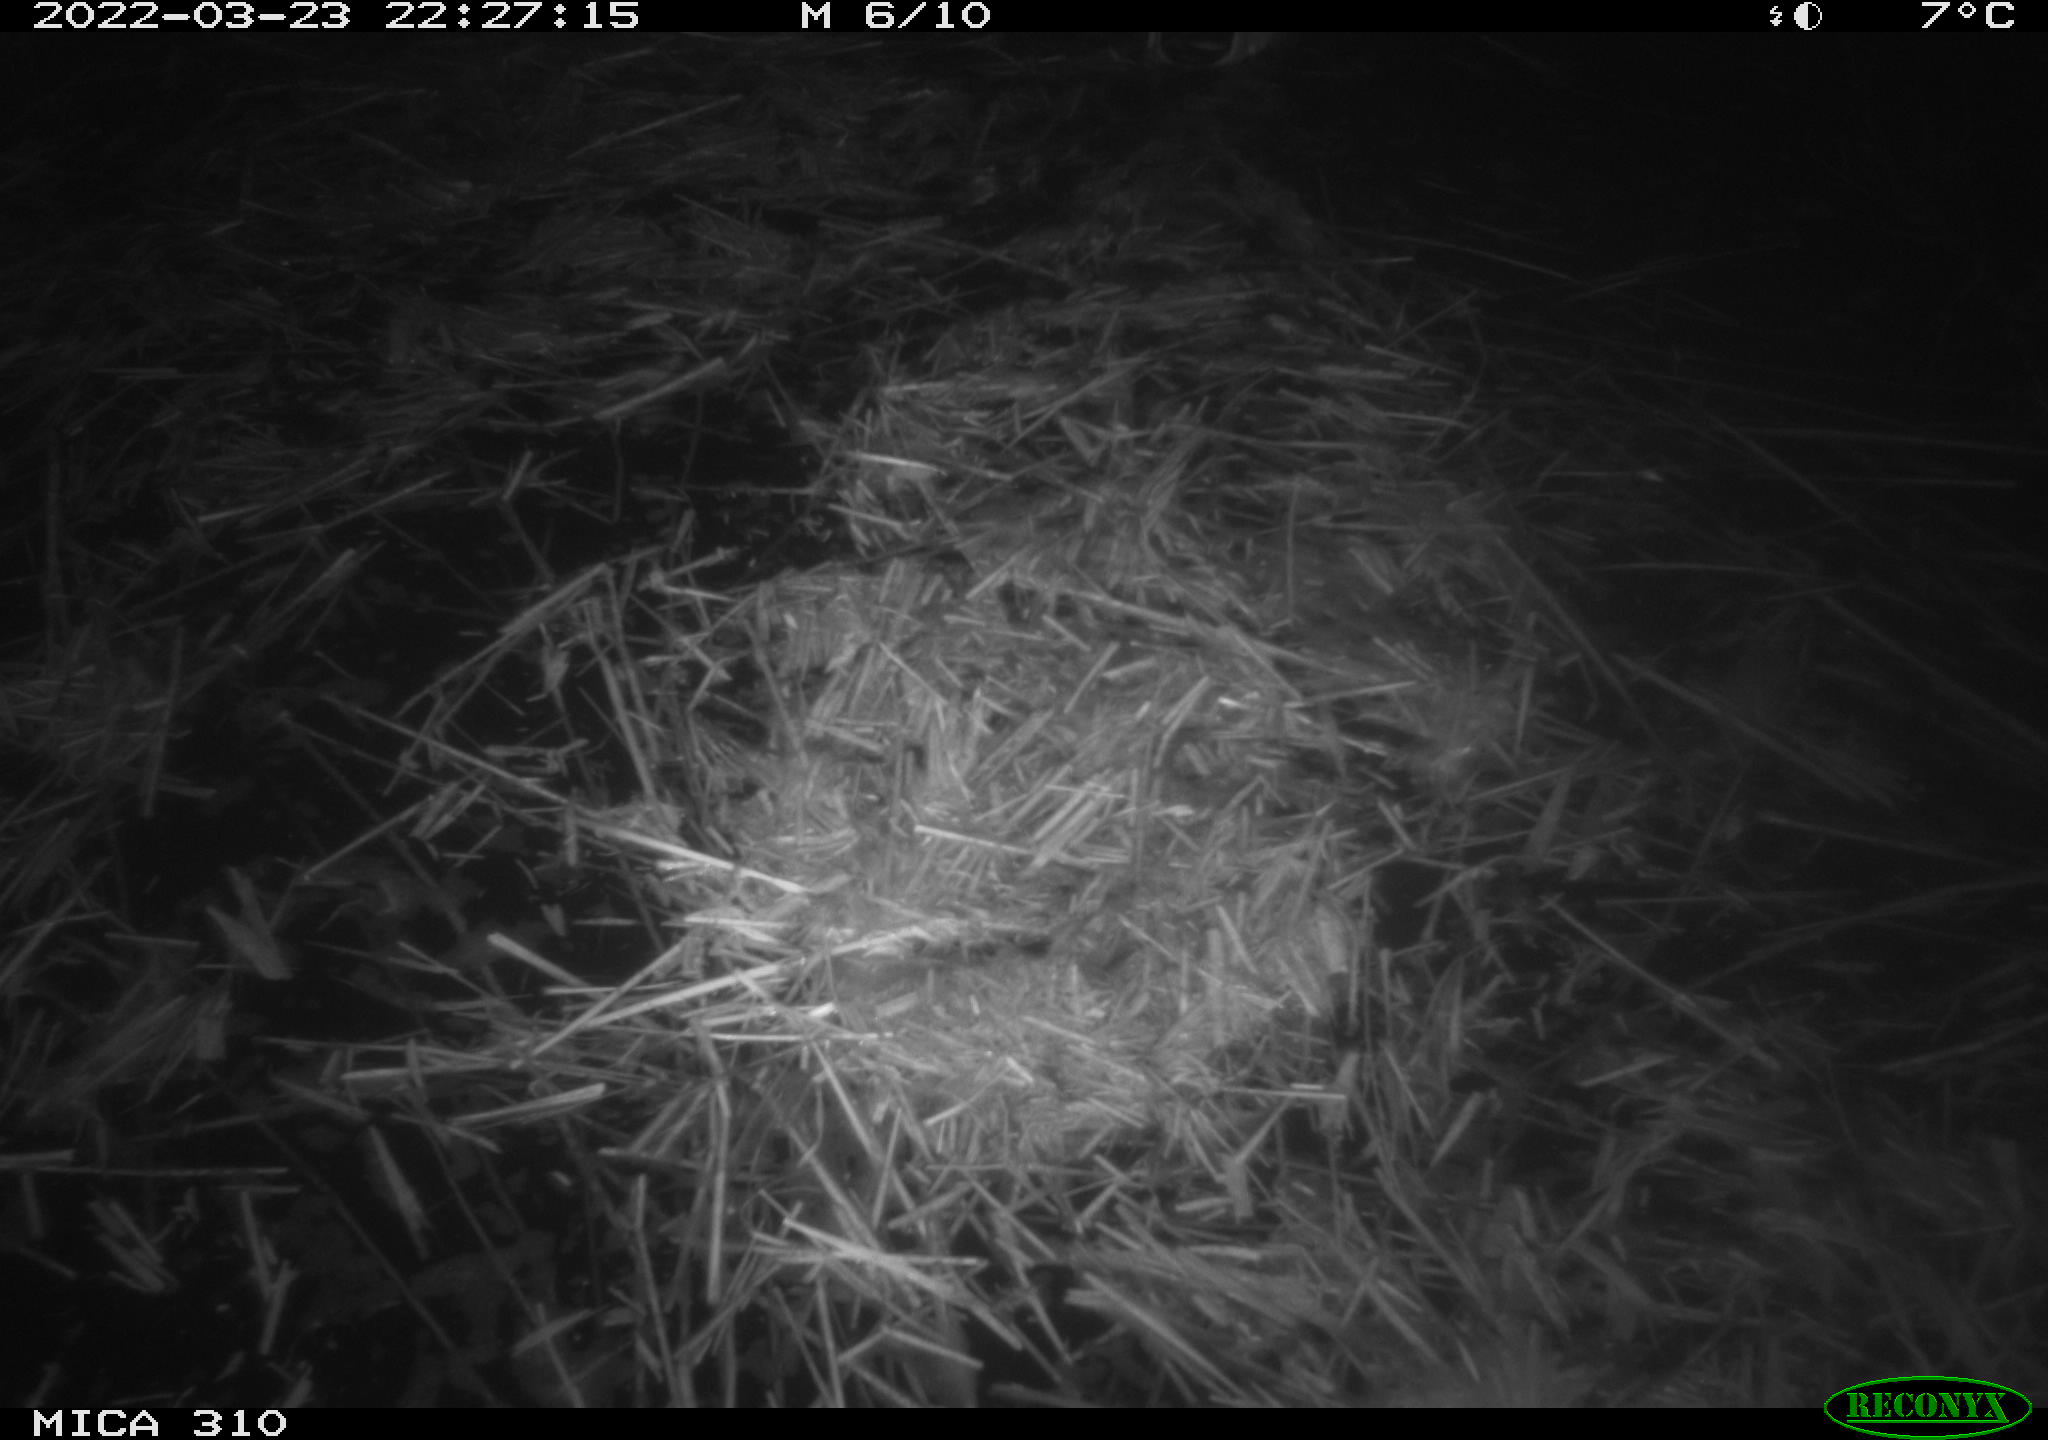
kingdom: Animalia
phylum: Chordata
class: Aves
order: Anseriformes
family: Anatidae
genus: Anas
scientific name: Anas platyrhynchos
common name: Mallard
